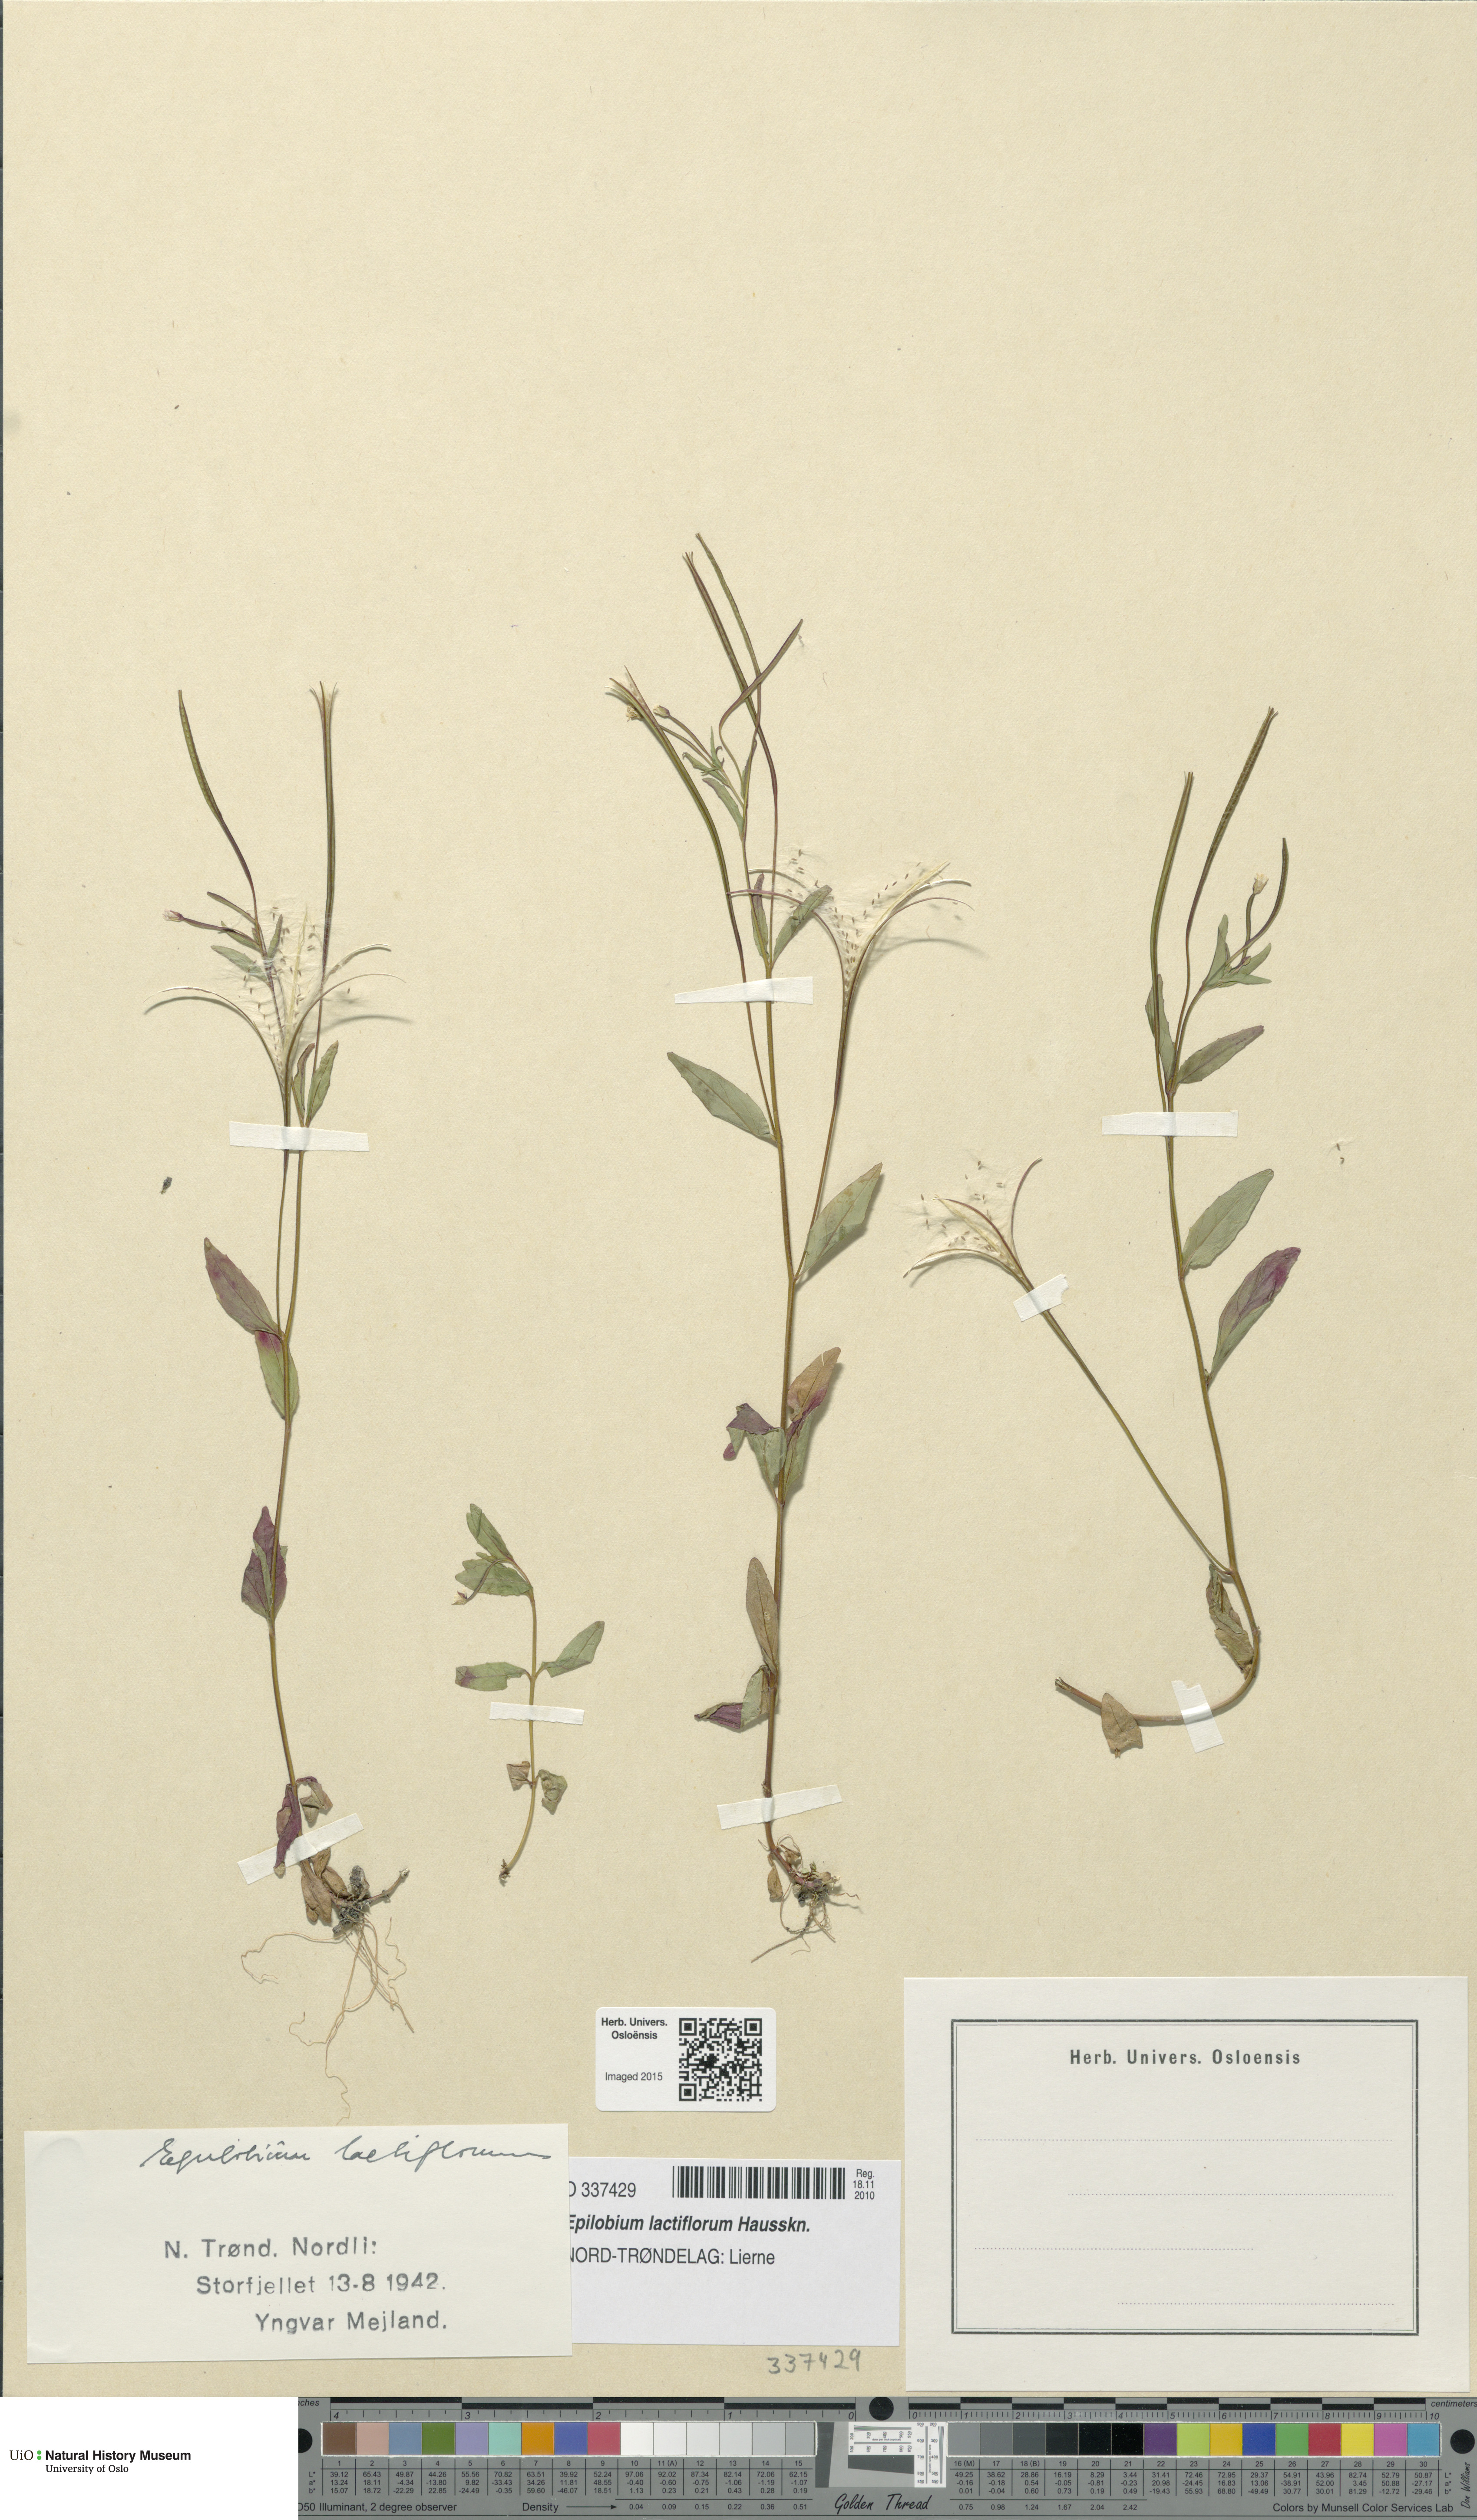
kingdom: Plantae
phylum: Tracheophyta
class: Magnoliopsida
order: Myrtales
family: Onagraceae
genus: Epilobium
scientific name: Epilobium lactiflorum
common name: Milkflower willowherb
